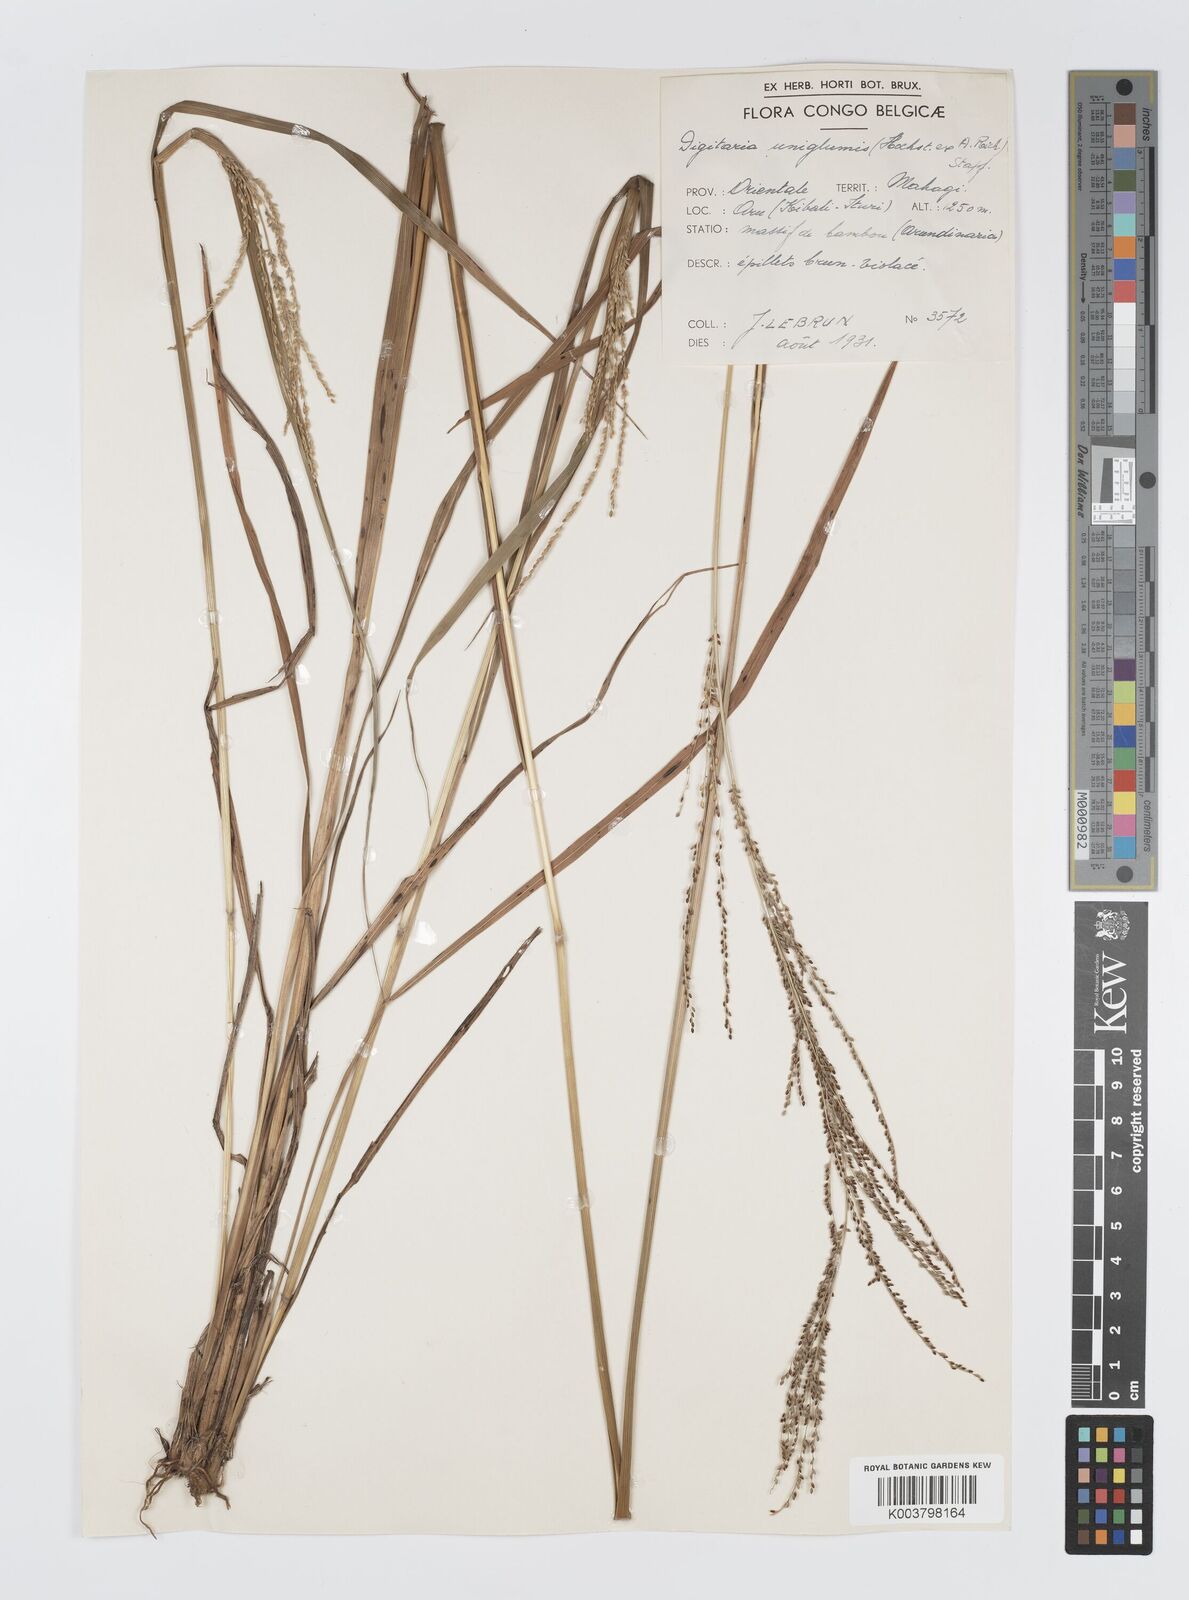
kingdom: Plantae
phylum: Tracheophyta
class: Liliopsida
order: Poales
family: Poaceae
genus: Digitaria
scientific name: Digitaria diagonalis
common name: Brown-seed finger grass
